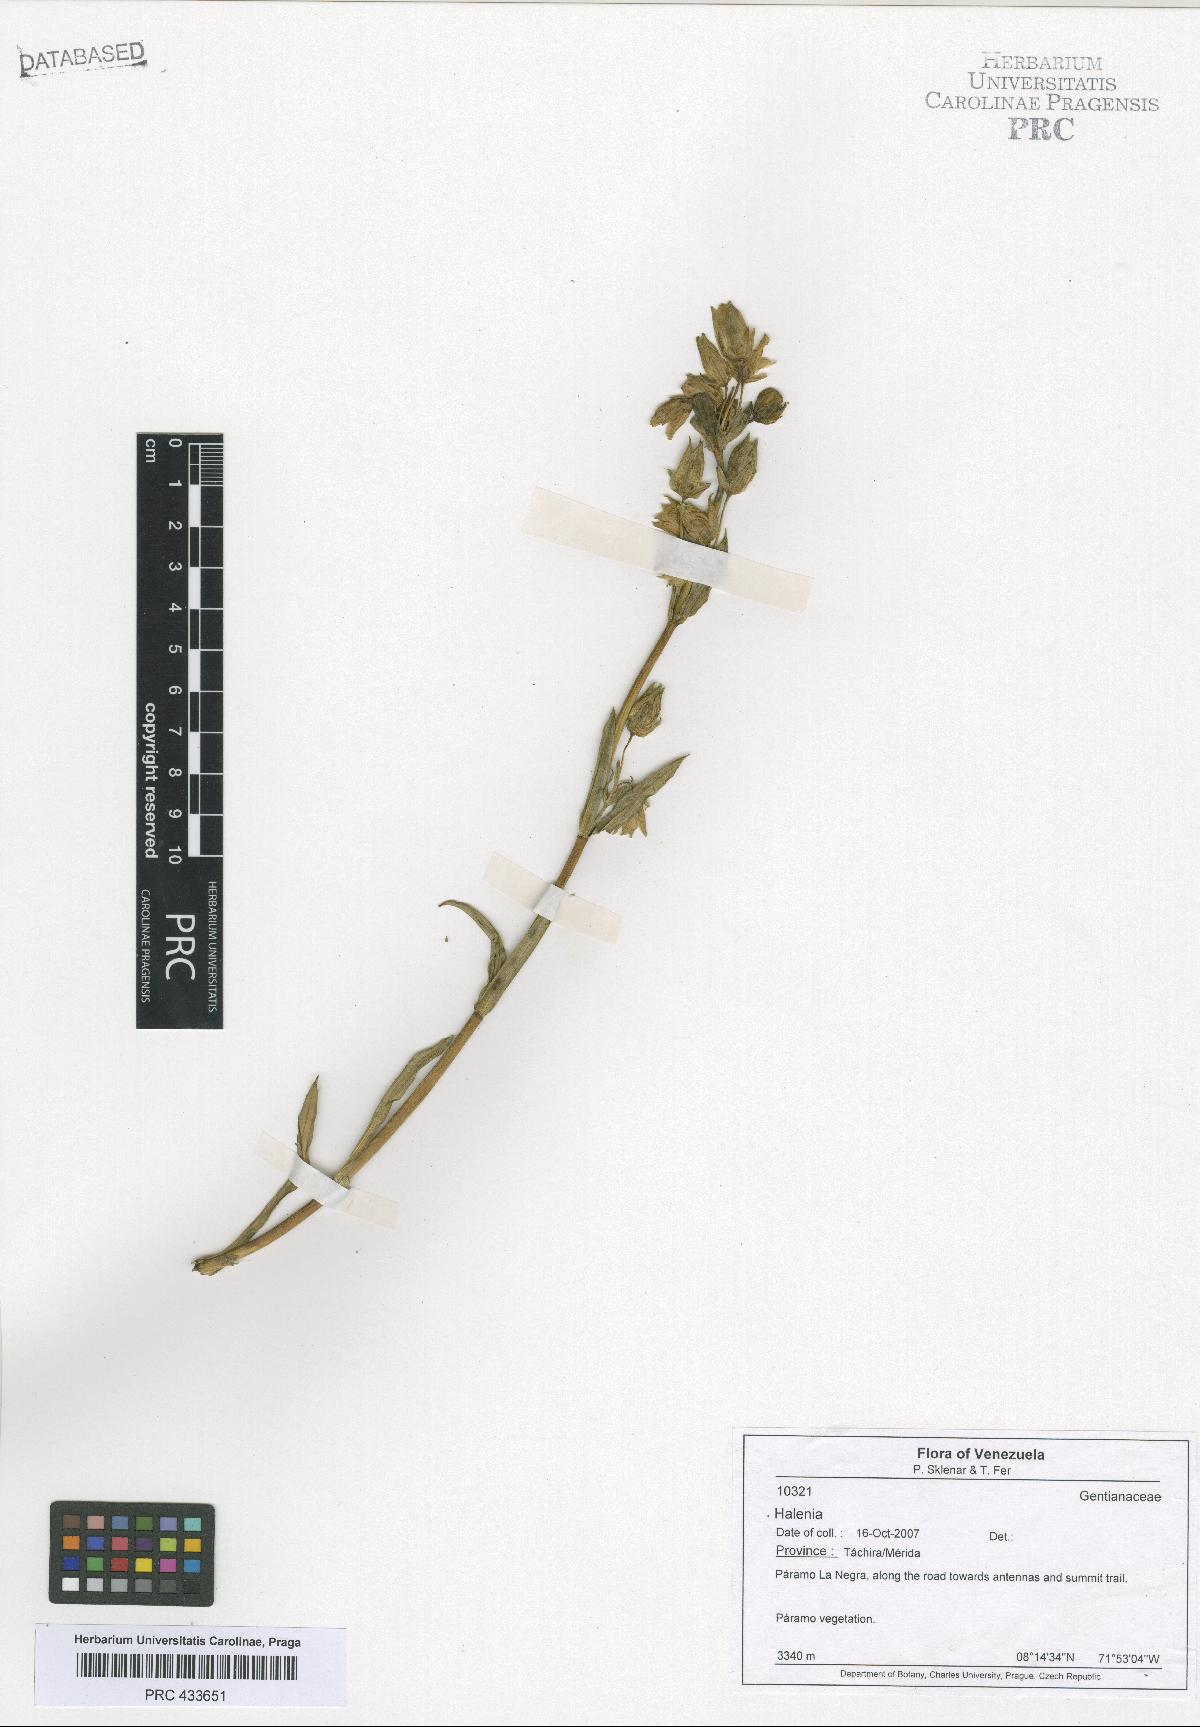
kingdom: Plantae
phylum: Tracheophyta
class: Magnoliopsida
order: Gentianales
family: Gentianaceae
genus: Halenia
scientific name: Halenia
